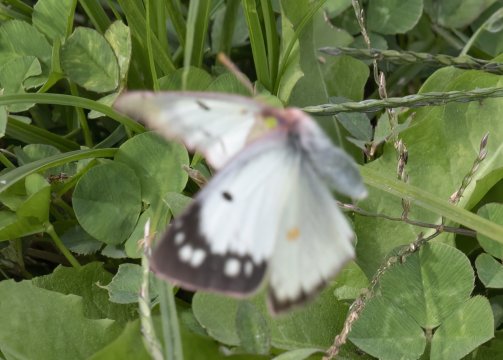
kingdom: Animalia
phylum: Arthropoda
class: Insecta
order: Lepidoptera
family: Pieridae
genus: Colias
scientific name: Colias philodice
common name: Clouded Sulphur
